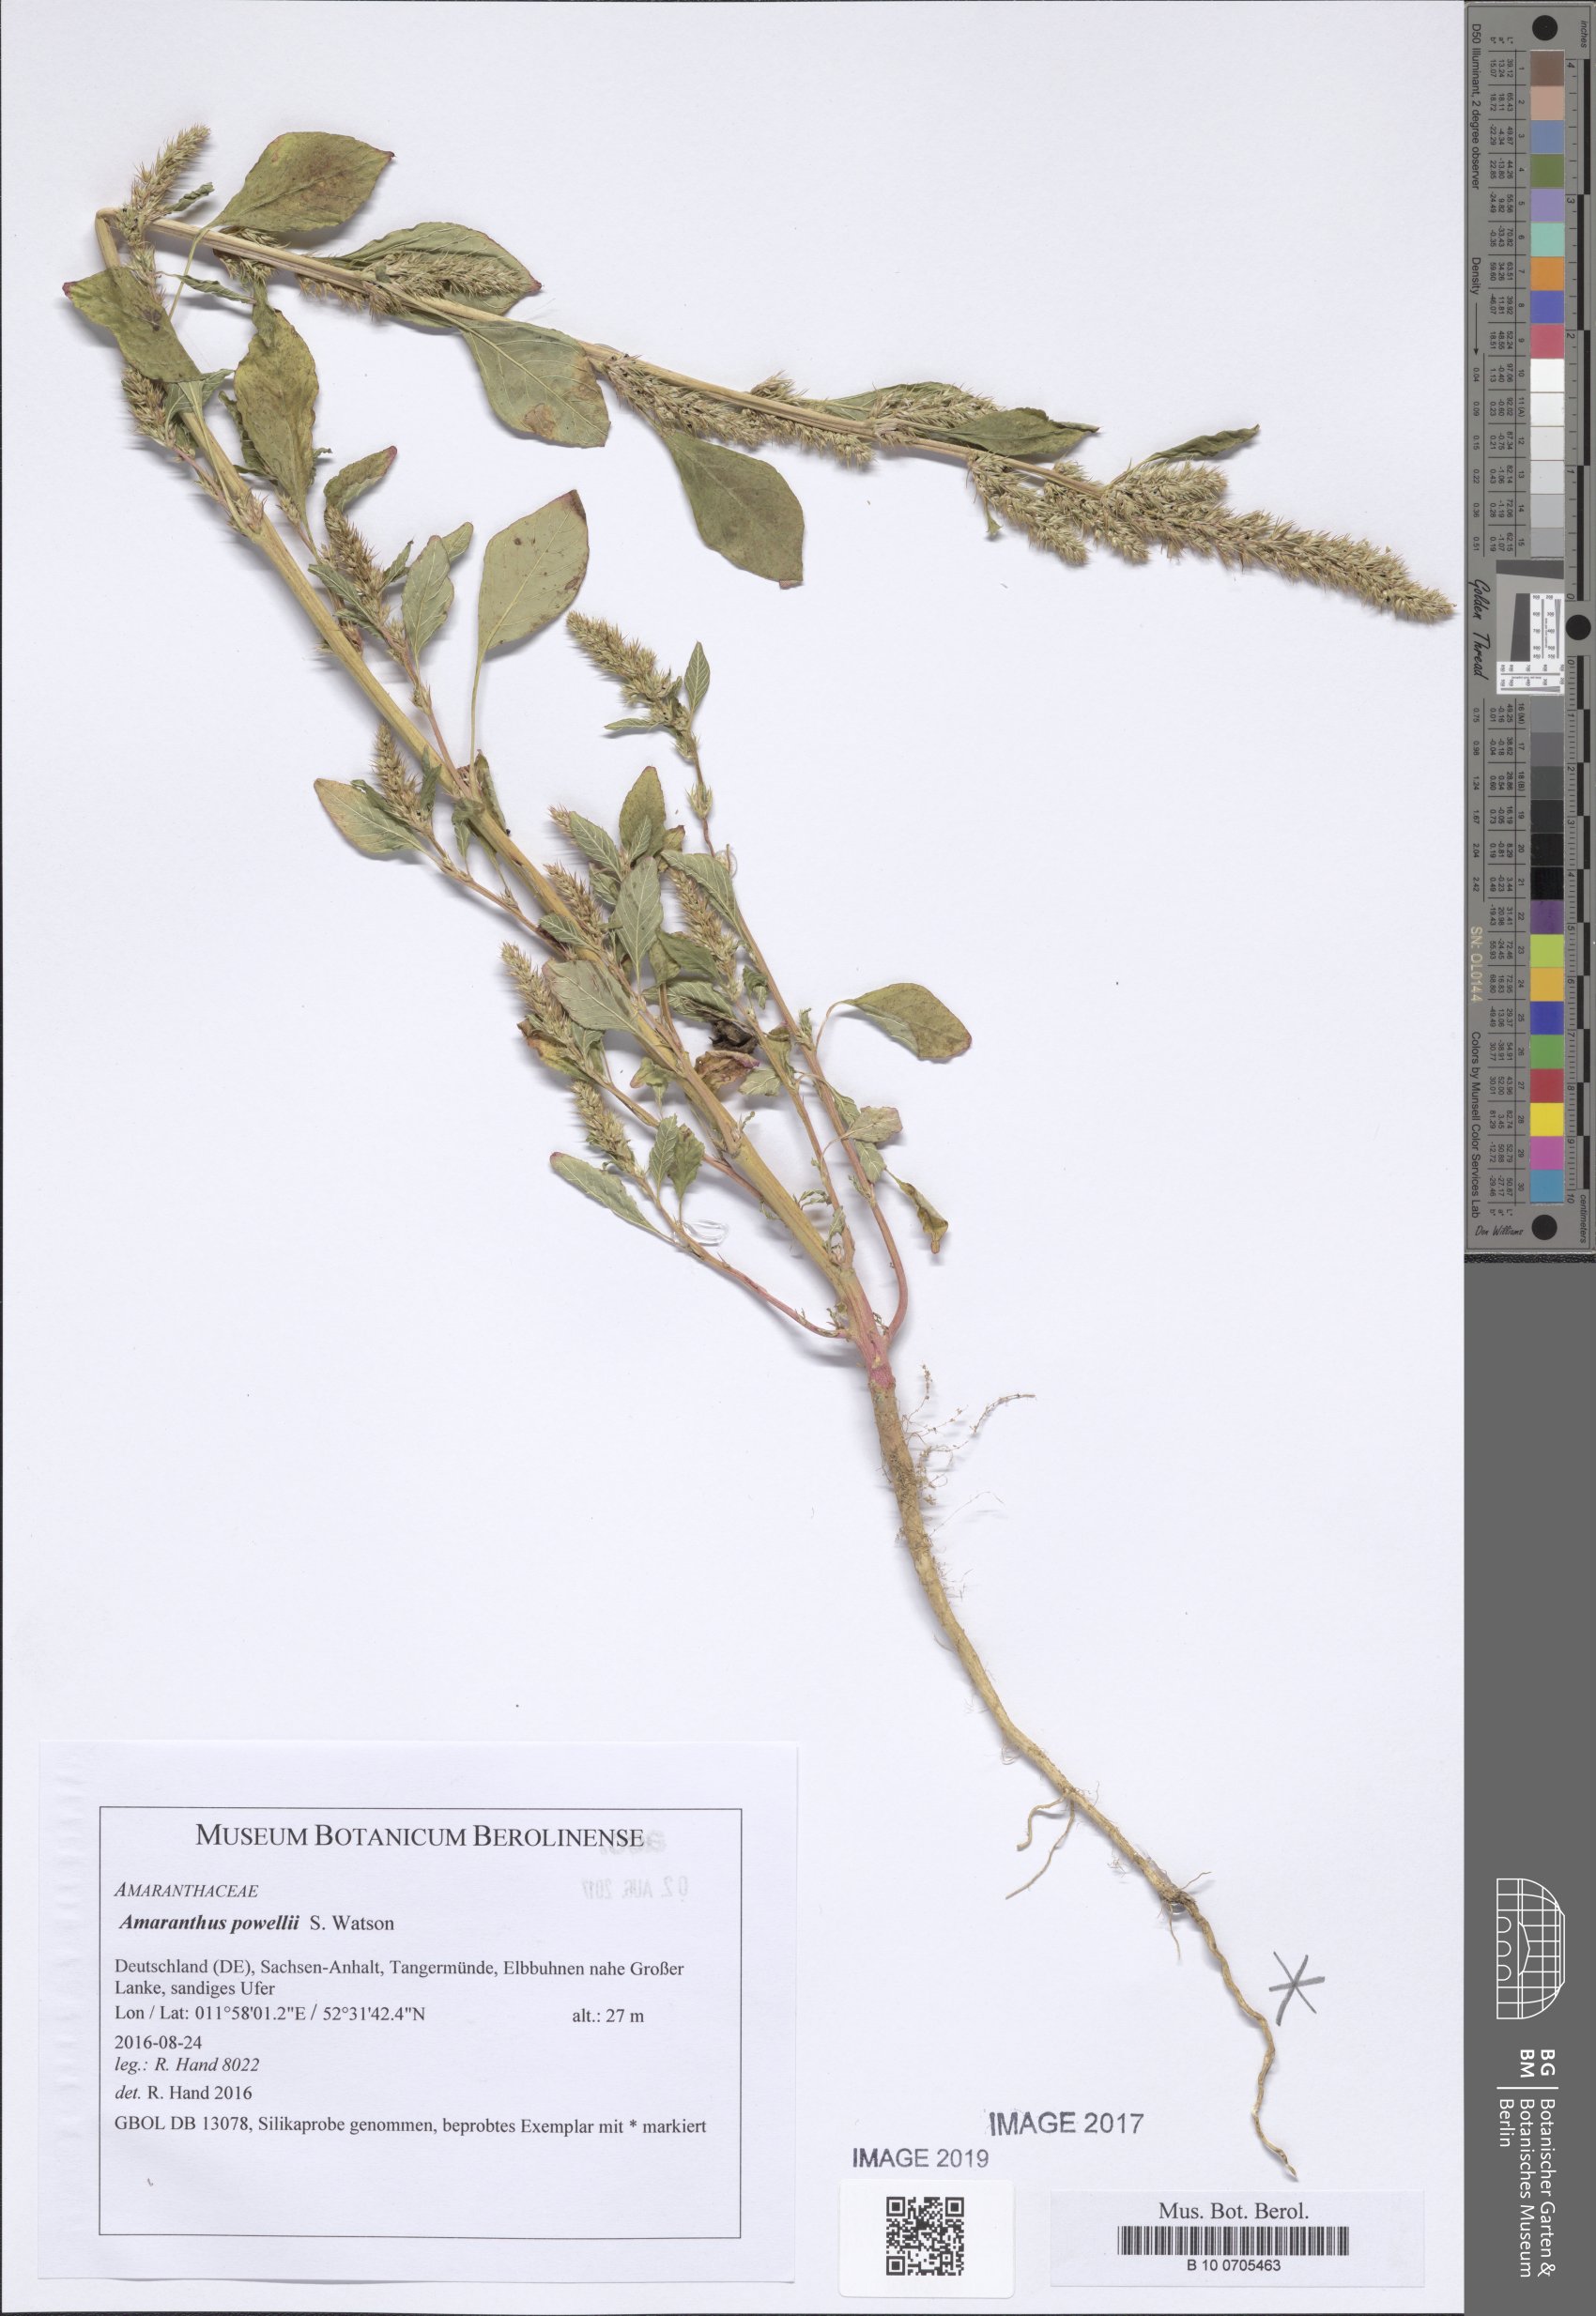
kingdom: Plantae
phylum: Tracheophyta
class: Magnoliopsida
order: Caryophyllales
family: Amaranthaceae
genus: Amaranthus
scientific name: Amaranthus powellii
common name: Powell's amaranth
